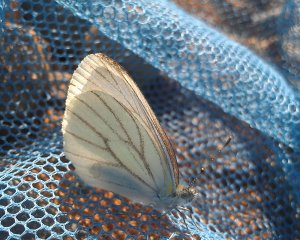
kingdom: Animalia
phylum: Arthropoda
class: Insecta
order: Lepidoptera
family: Pieridae
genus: Pieris
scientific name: Pieris oleracea
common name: Mustard White
